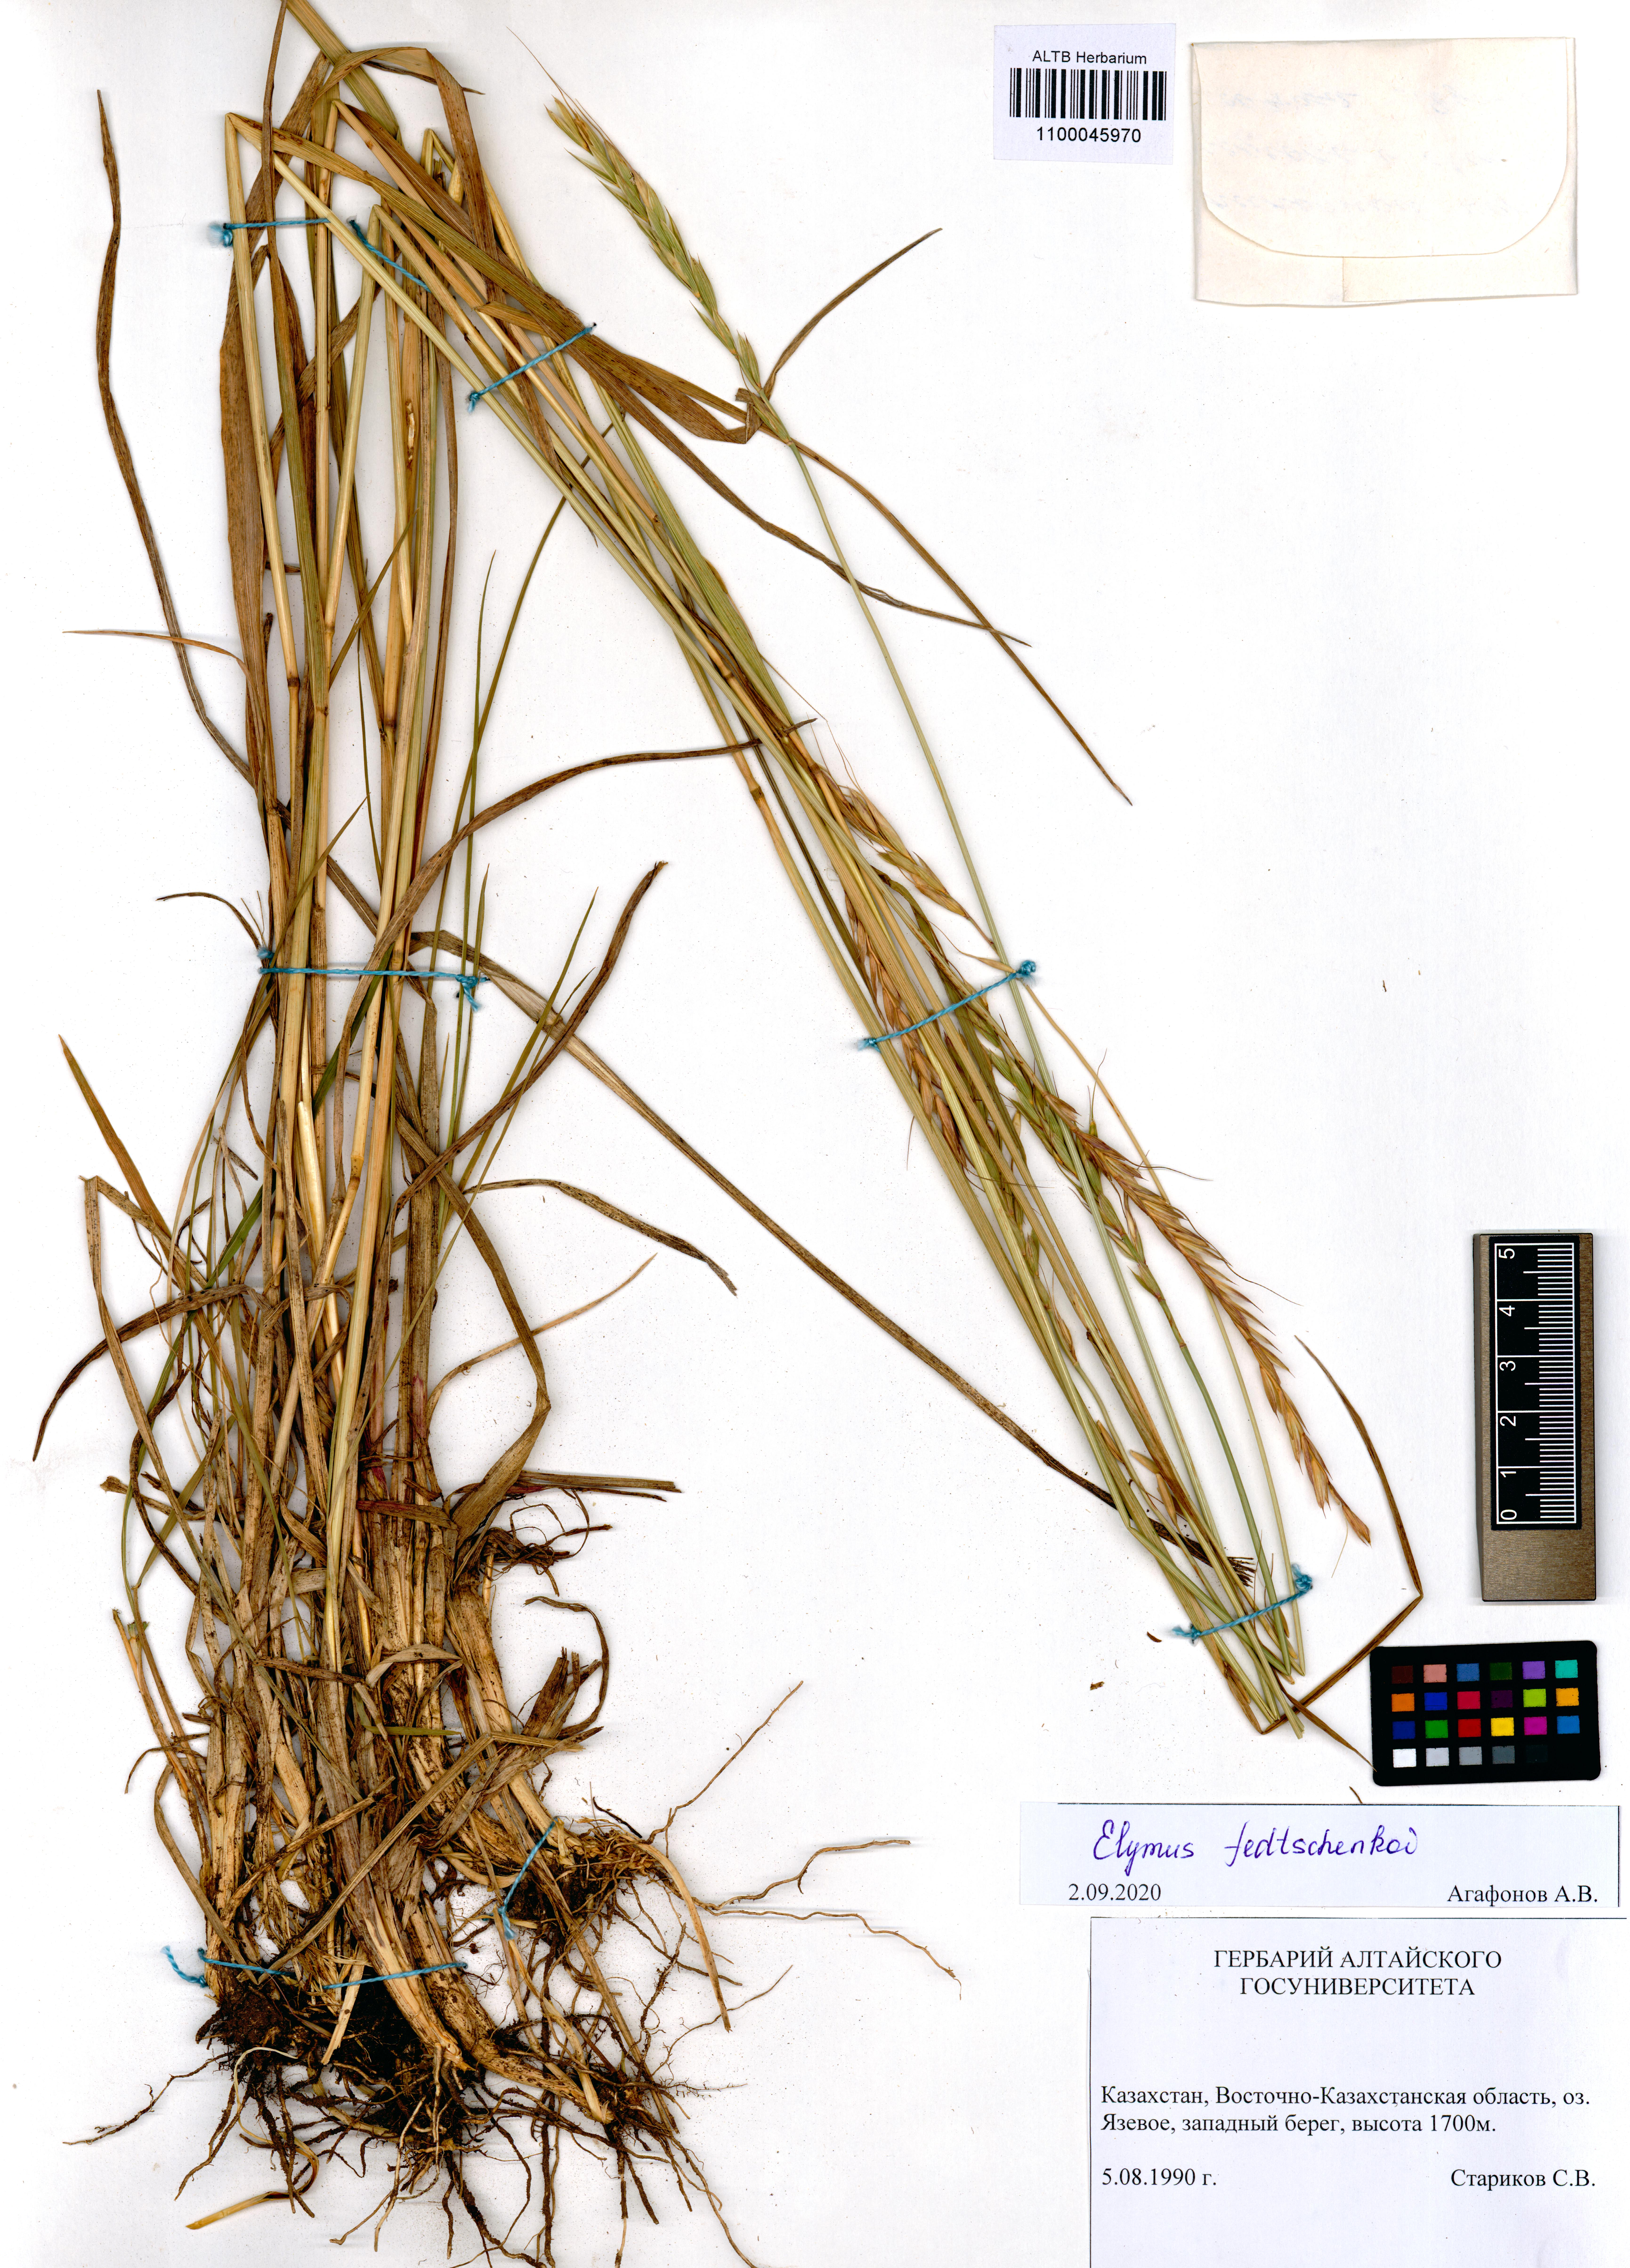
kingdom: Plantae
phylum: Tracheophyta
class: Liliopsida
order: Poales
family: Poaceae
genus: Elymus
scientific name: Elymus fedtschenkoi
